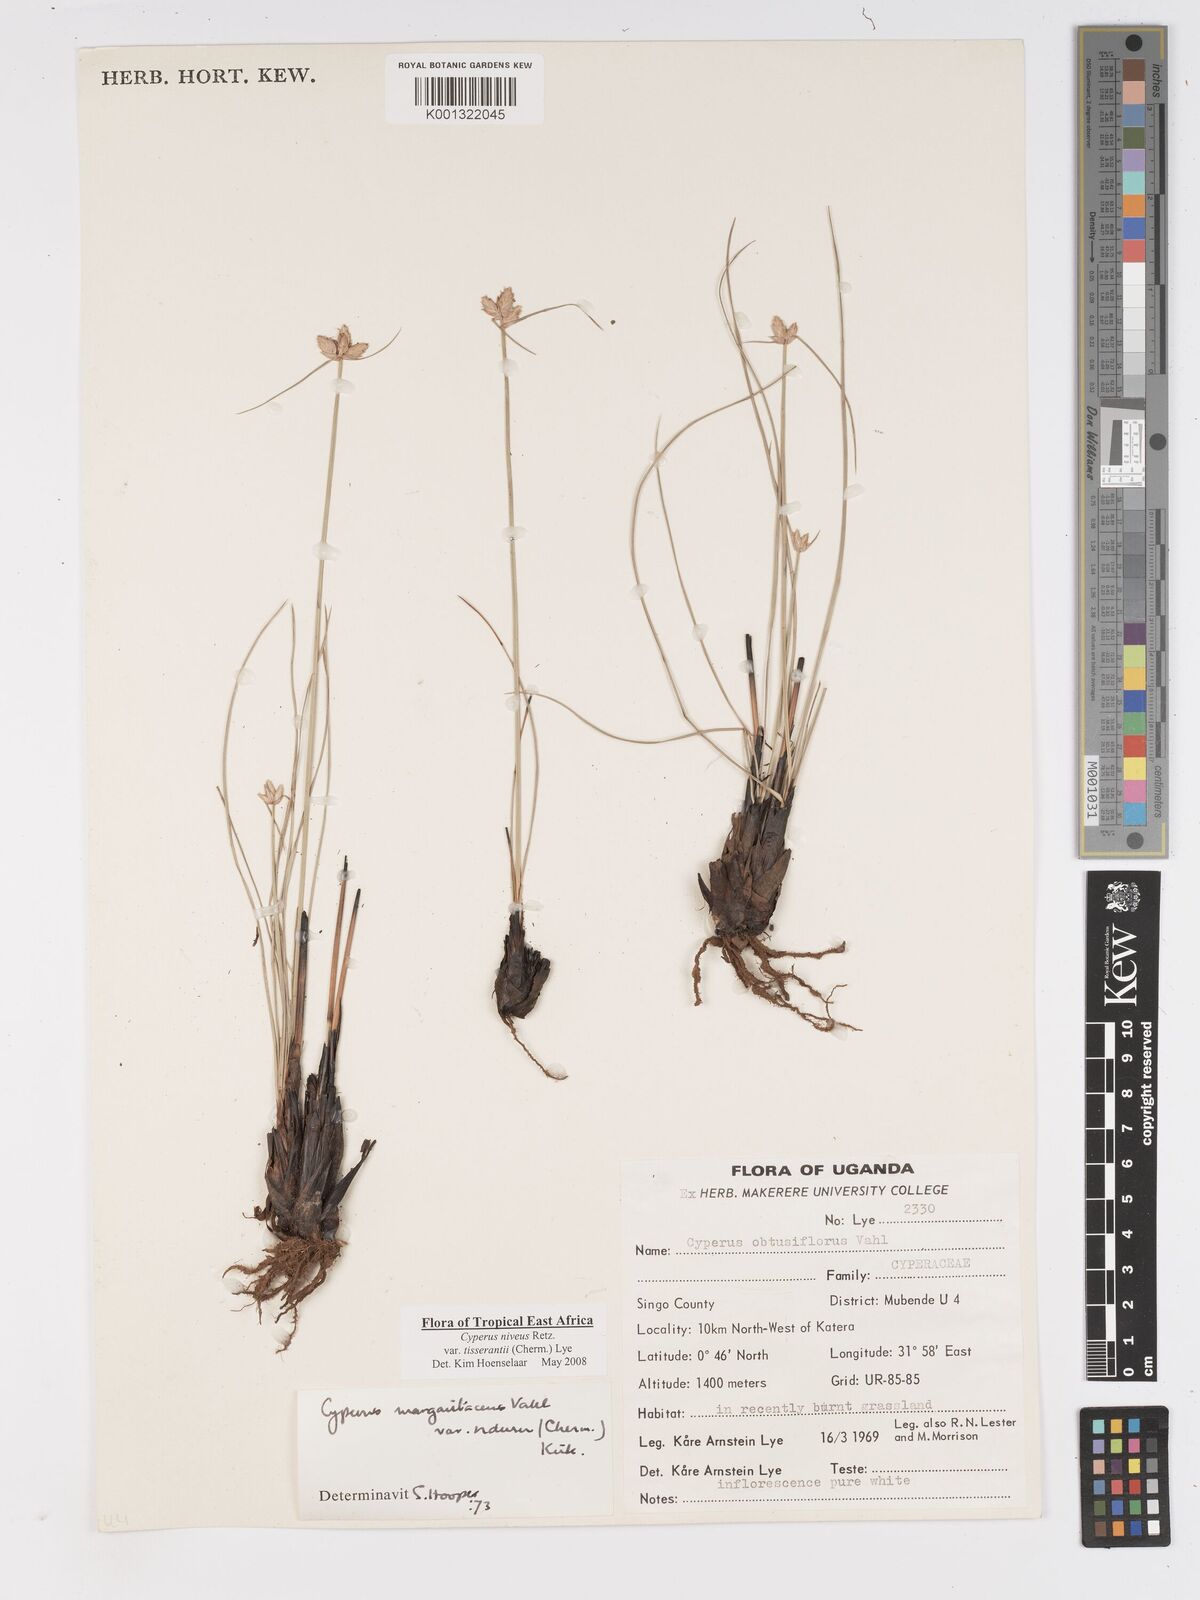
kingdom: Plantae
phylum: Tracheophyta
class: Liliopsida
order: Poales
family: Cyperaceae
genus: Cyperus
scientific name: Cyperus niveus
